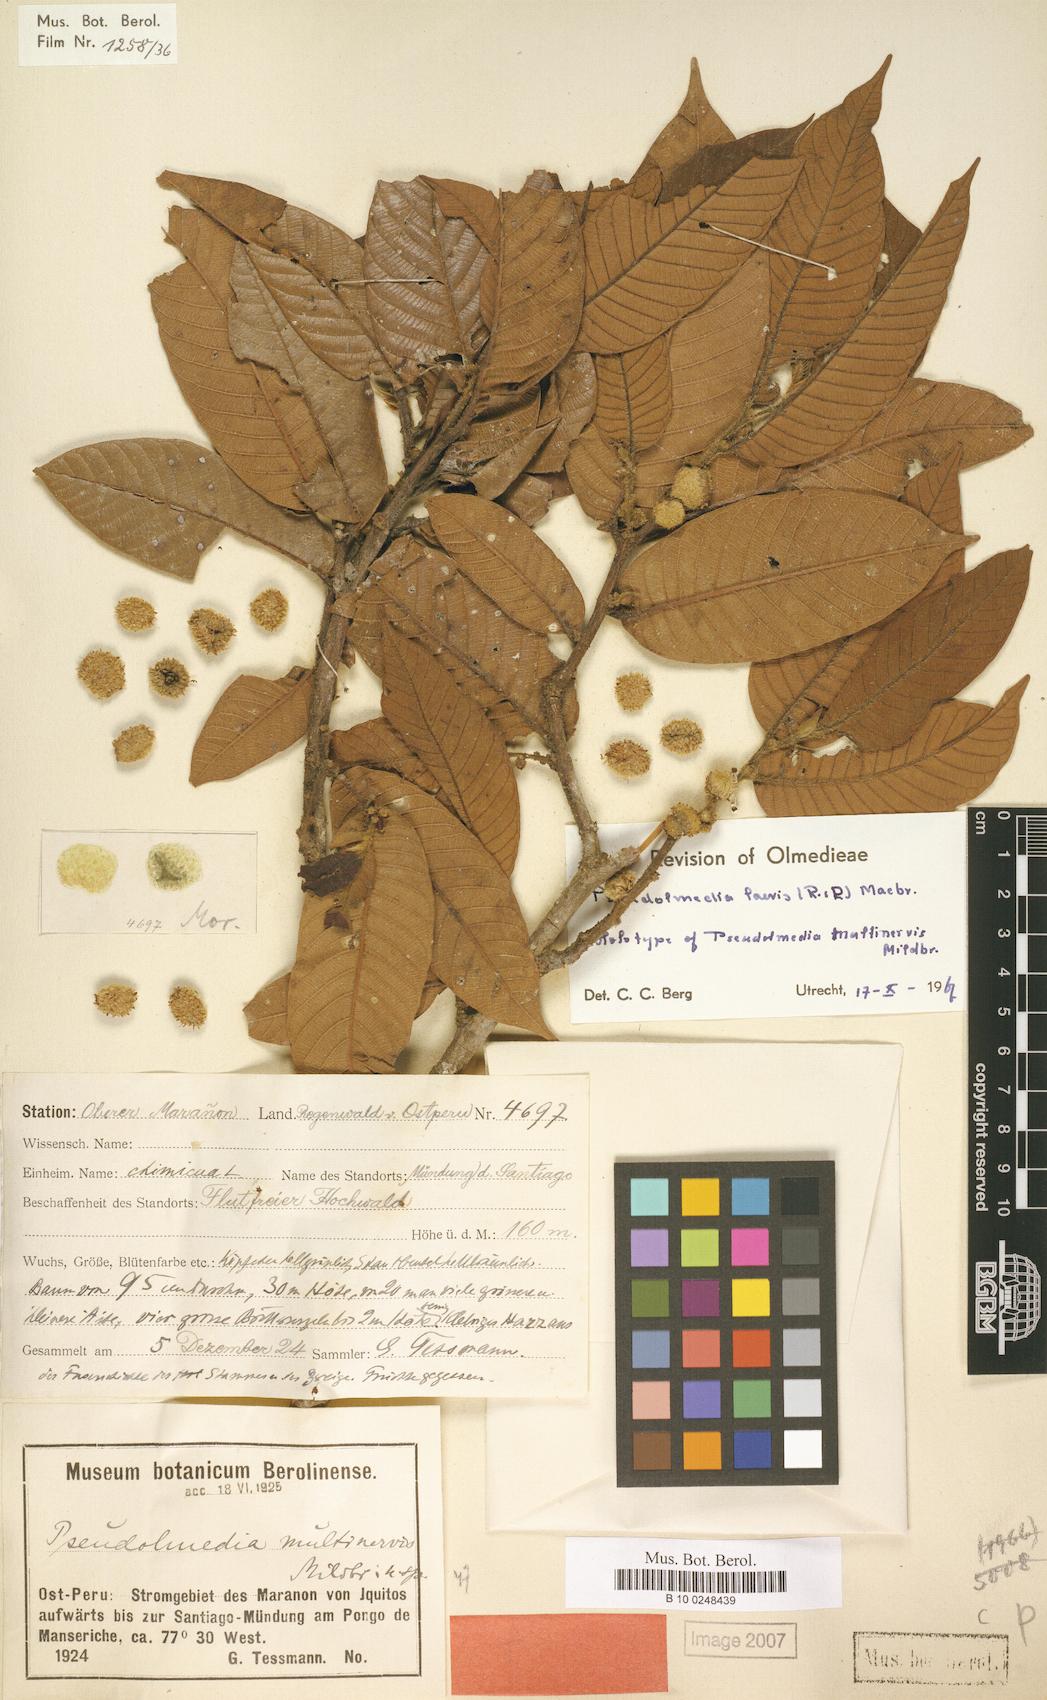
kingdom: Plantae
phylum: Tracheophyta
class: Magnoliopsida
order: Rosales
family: Moraceae
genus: Pseudolmedia
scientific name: Pseudolmedia laevis
